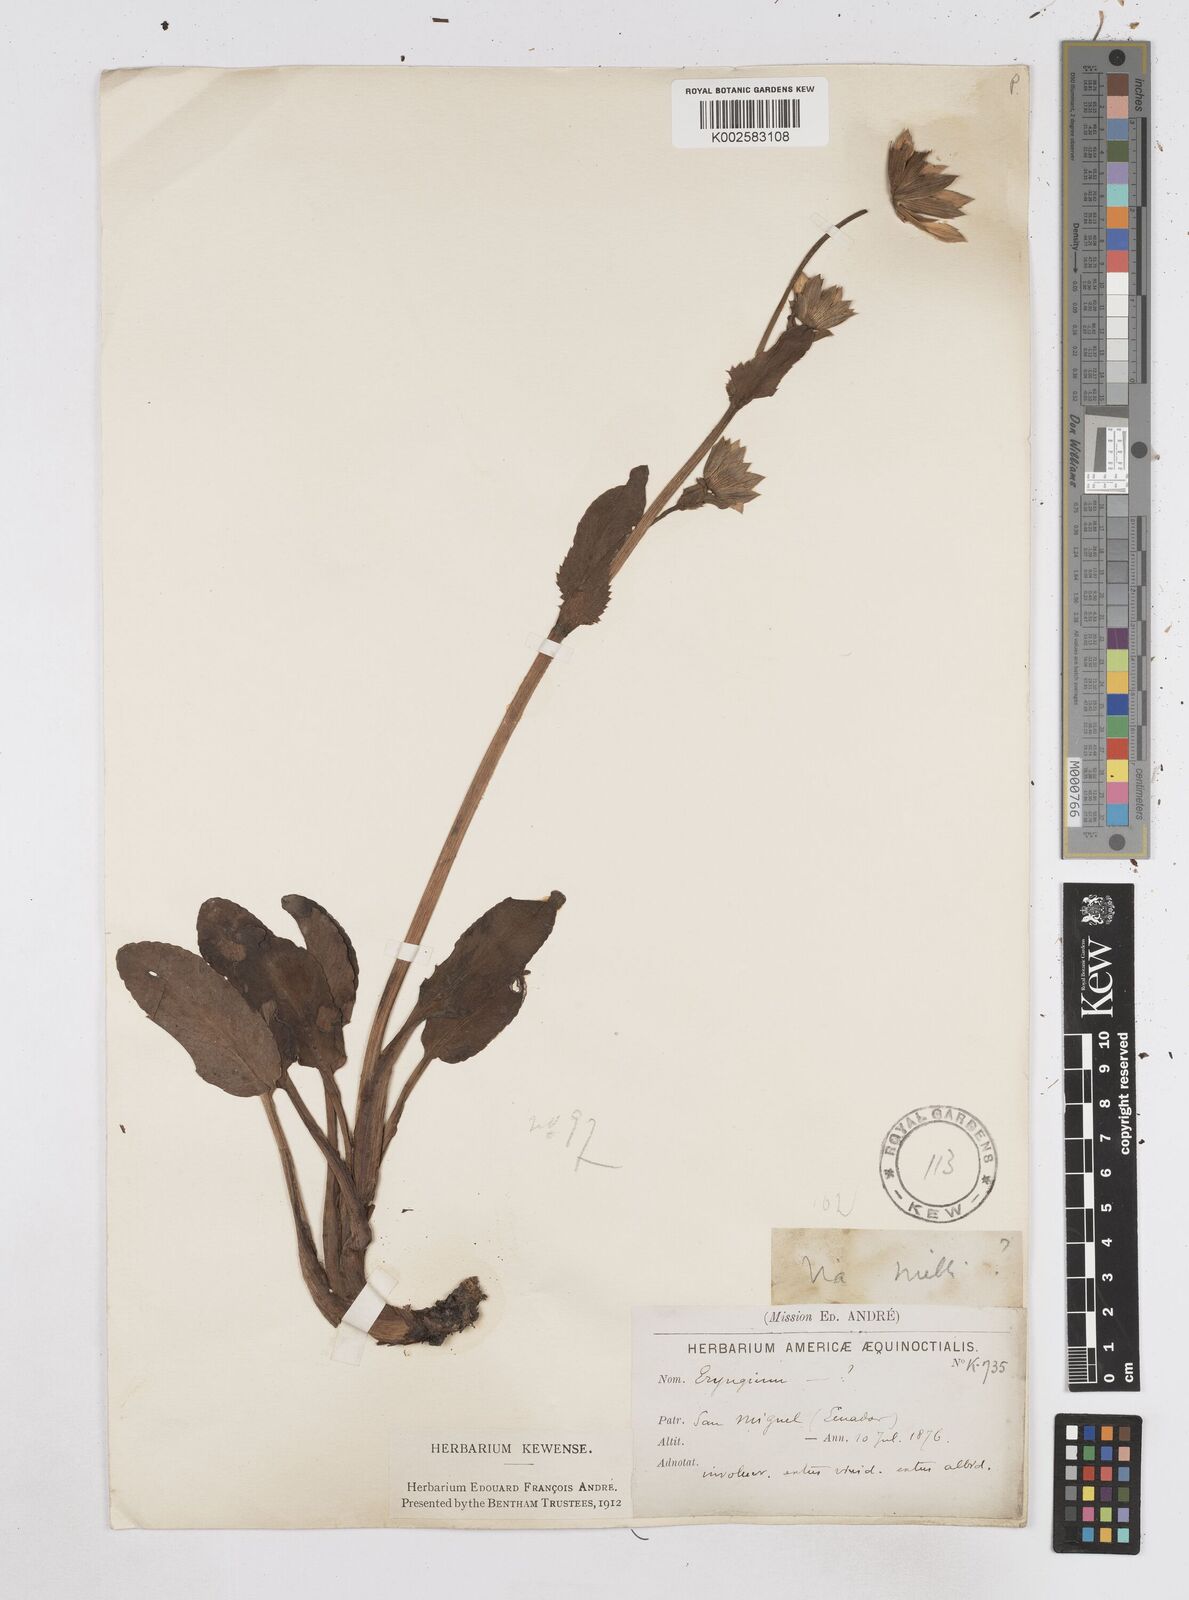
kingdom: Plantae
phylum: Tracheophyta
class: Magnoliopsida
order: Apiales
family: Apiaceae
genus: Eryngium
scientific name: Eryngium humile
